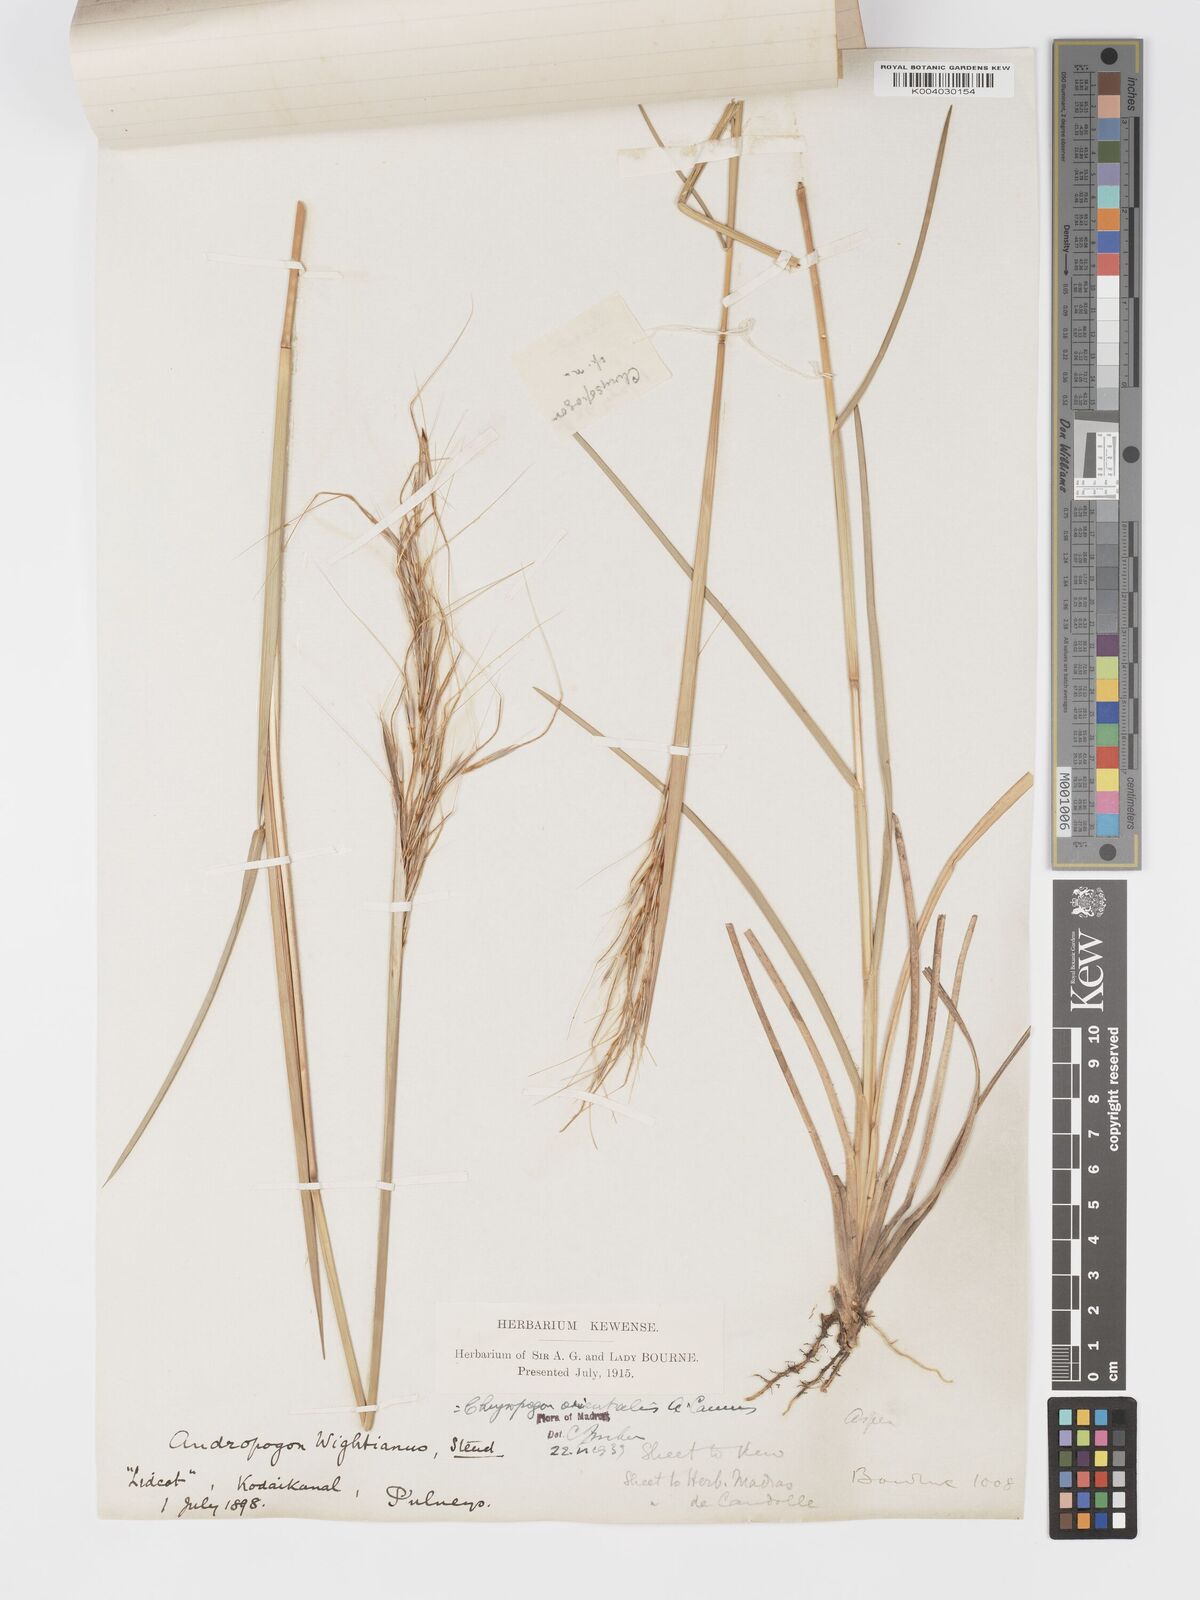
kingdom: Plantae
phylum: Tracheophyta
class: Liliopsida
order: Poales
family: Poaceae
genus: Chrysopogon
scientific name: Chrysopogon orientalis
